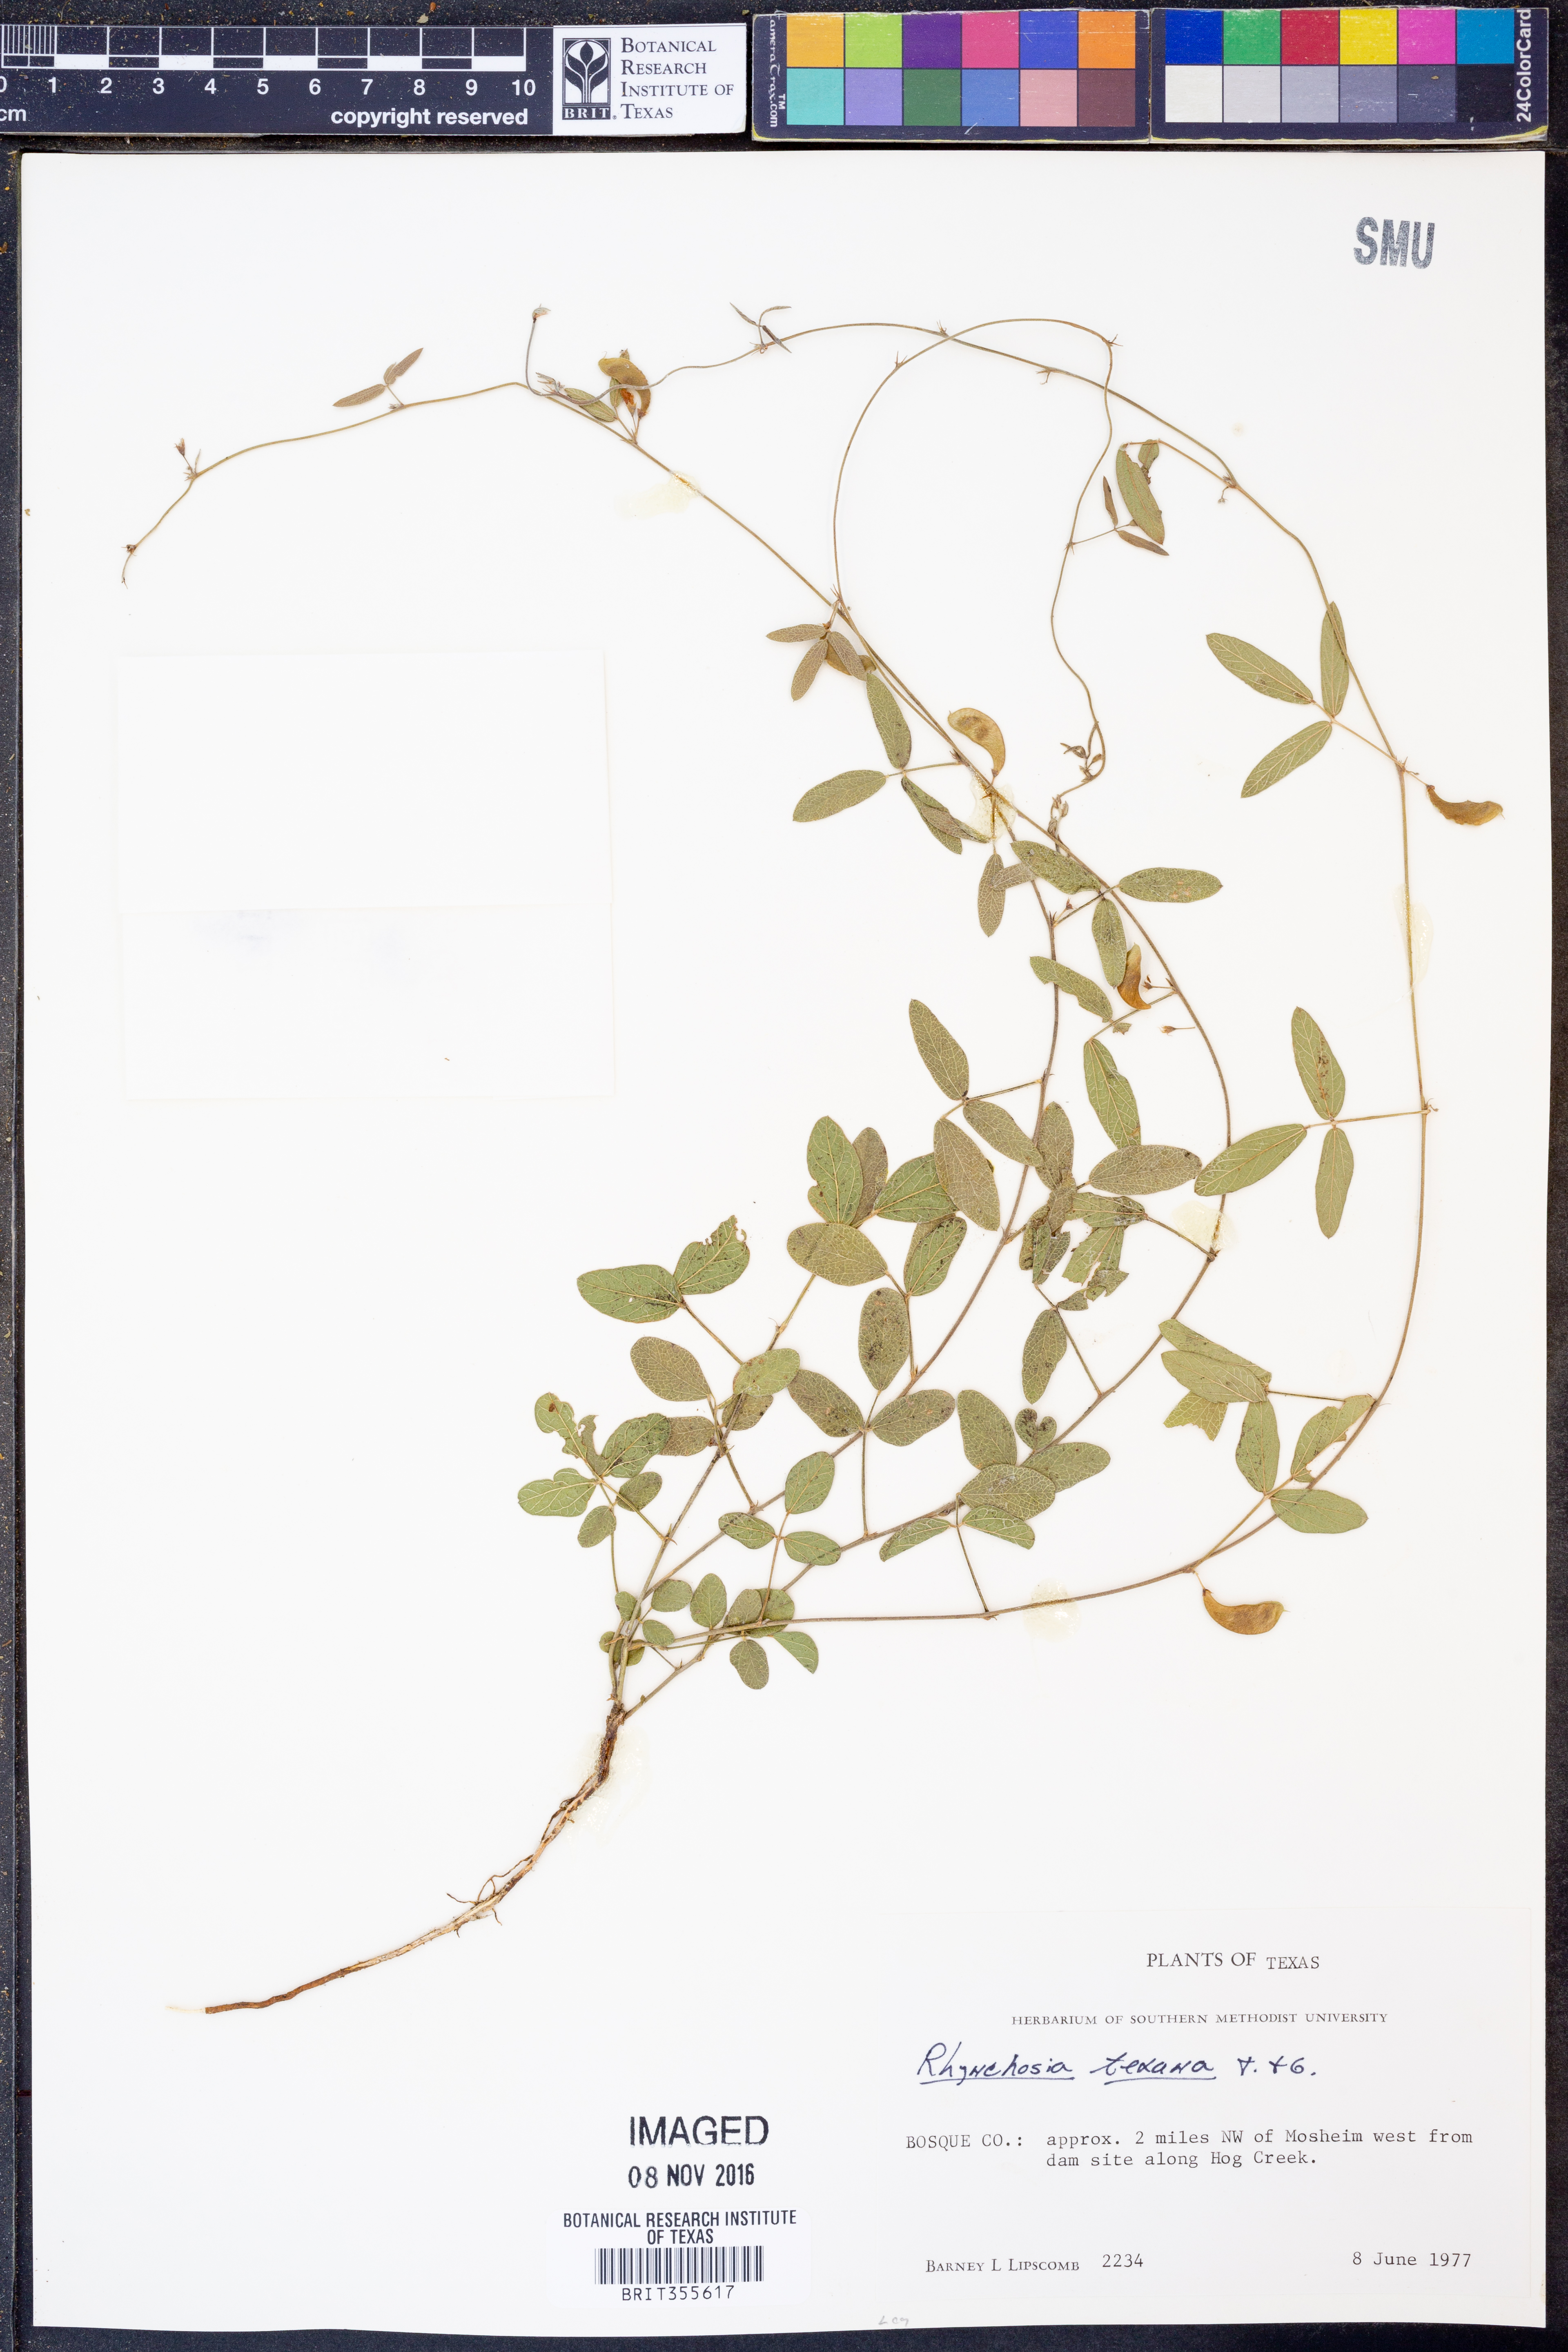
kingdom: Plantae
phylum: Tracheophyta
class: Magnoliopsida
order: Fabales
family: Fabaceae
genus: Rhynchosia
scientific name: Rhynchosia senna
